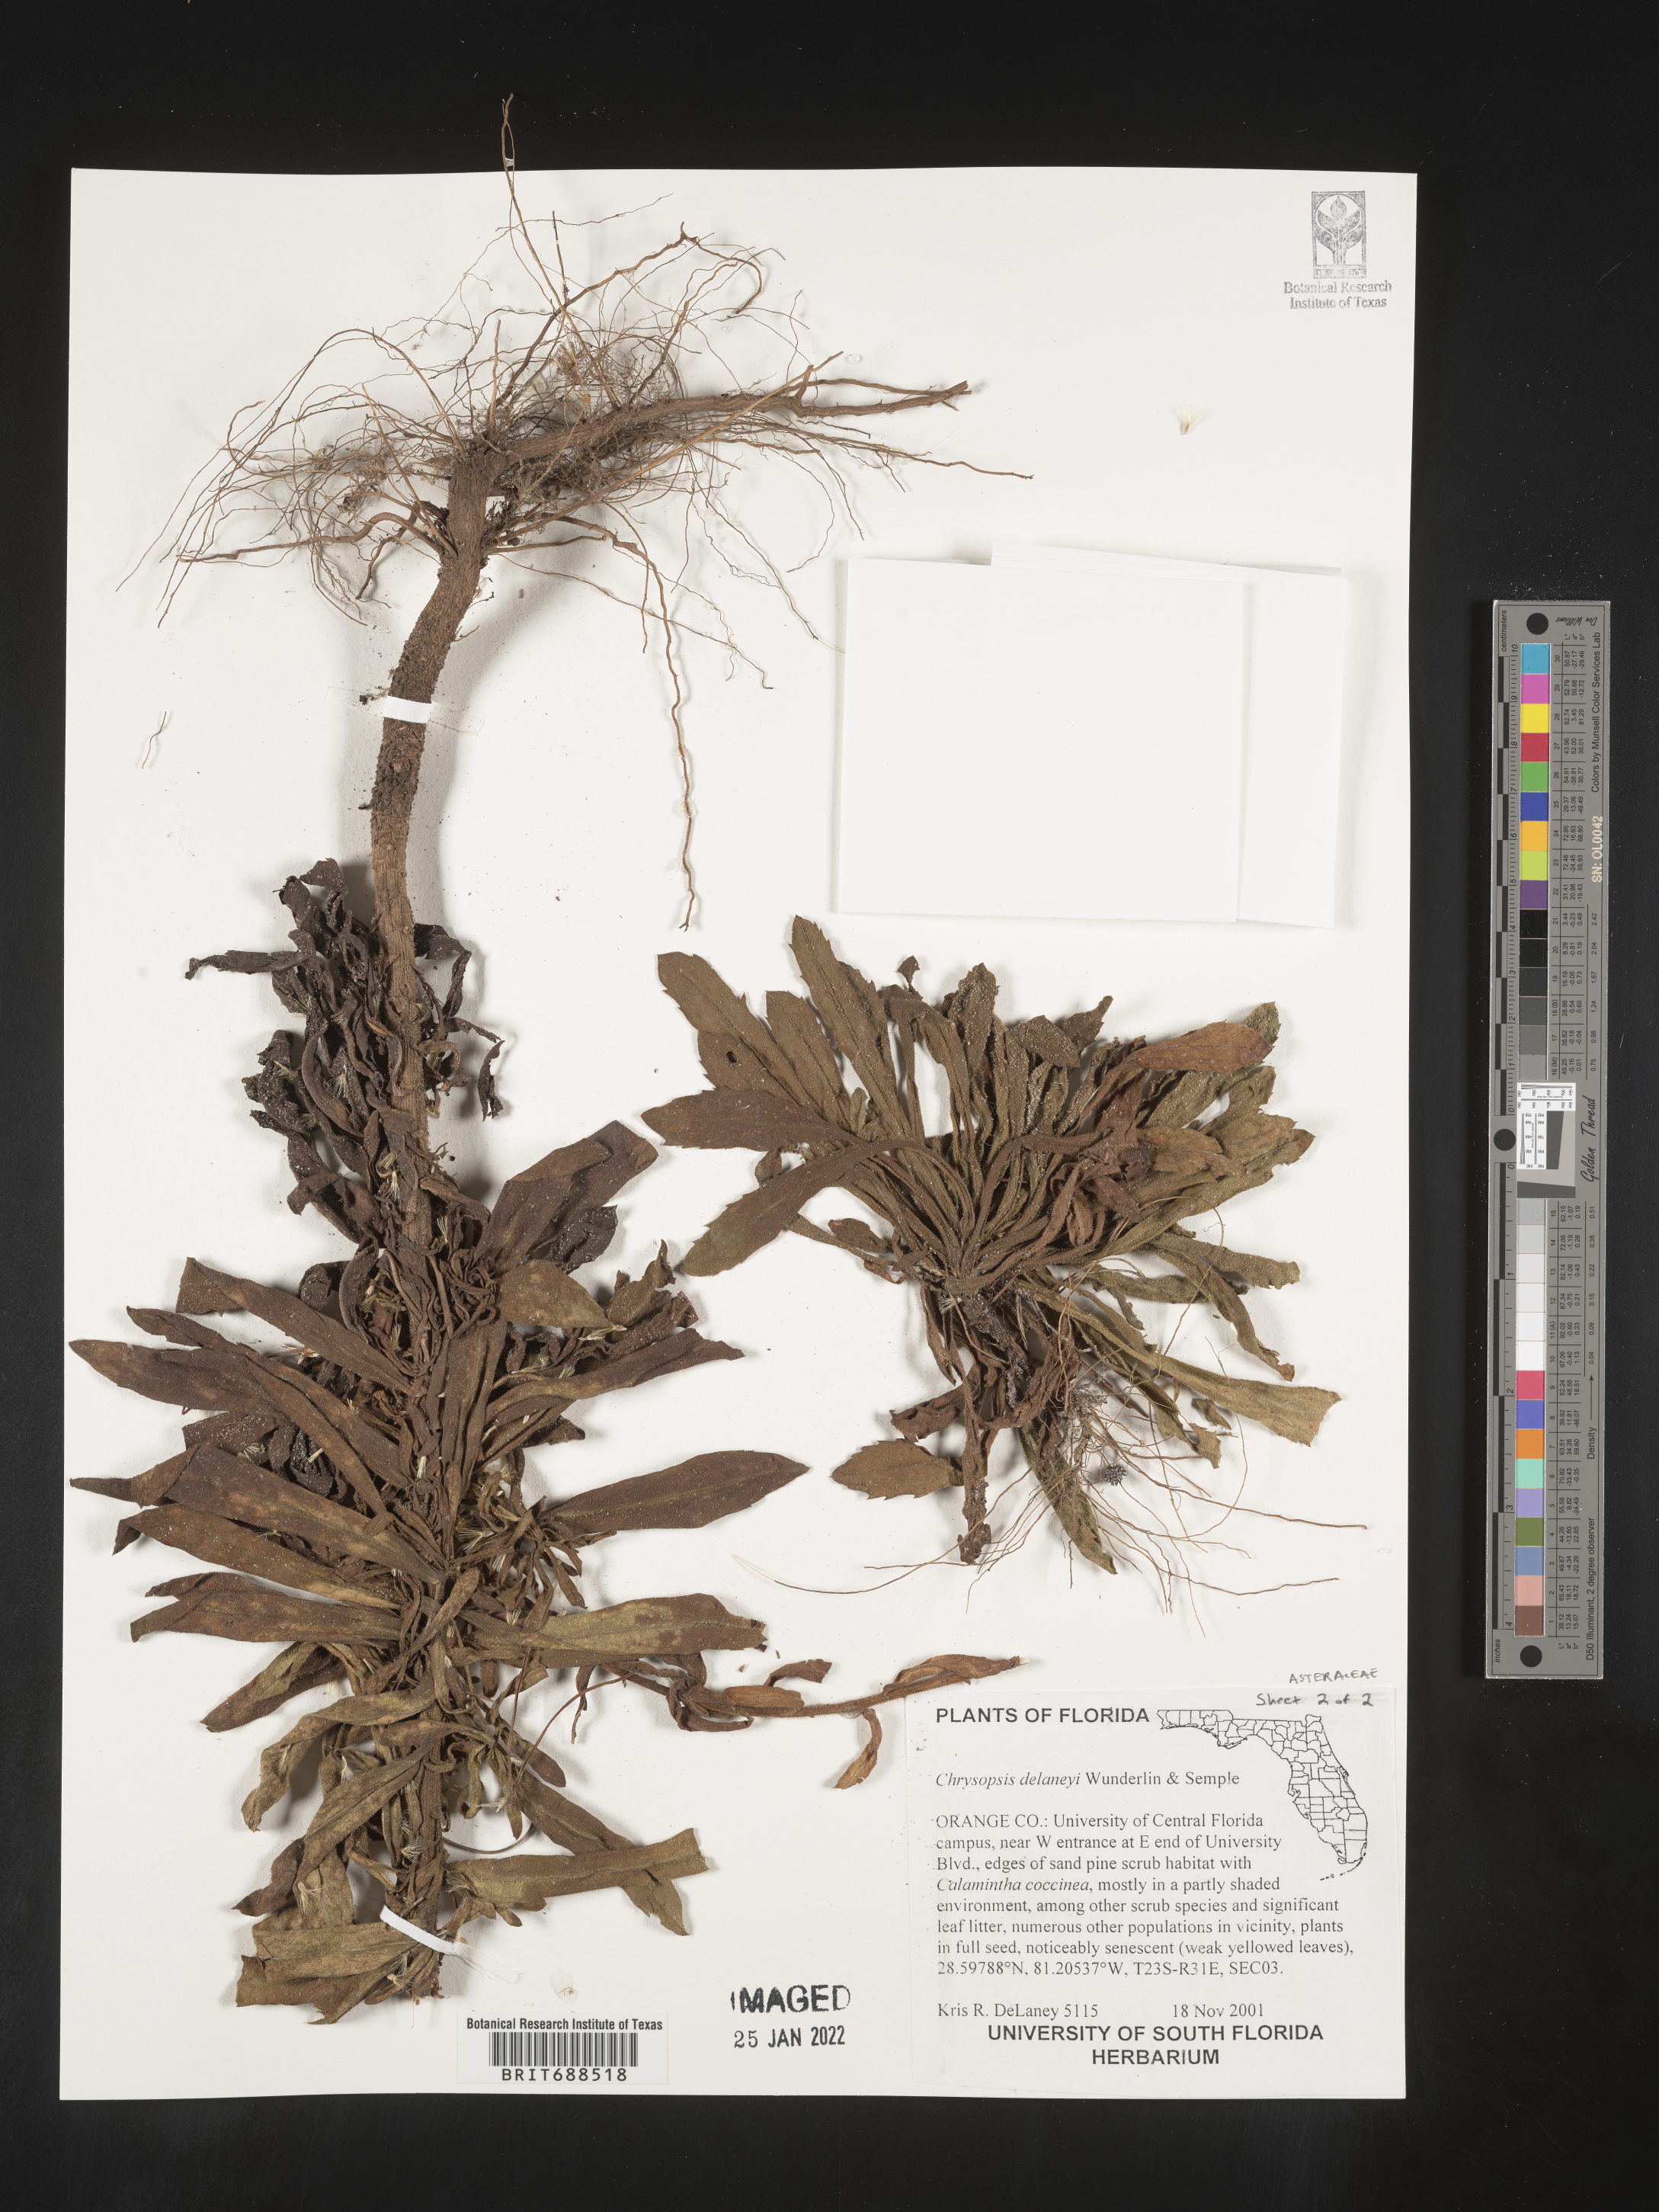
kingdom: Plantae
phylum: Tracheophyta
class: Magnoliopsida
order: Asterales
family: Asteraceae
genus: Chrysopsis
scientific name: Chrysopsis delaneyi
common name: Delaney's goldenaster
